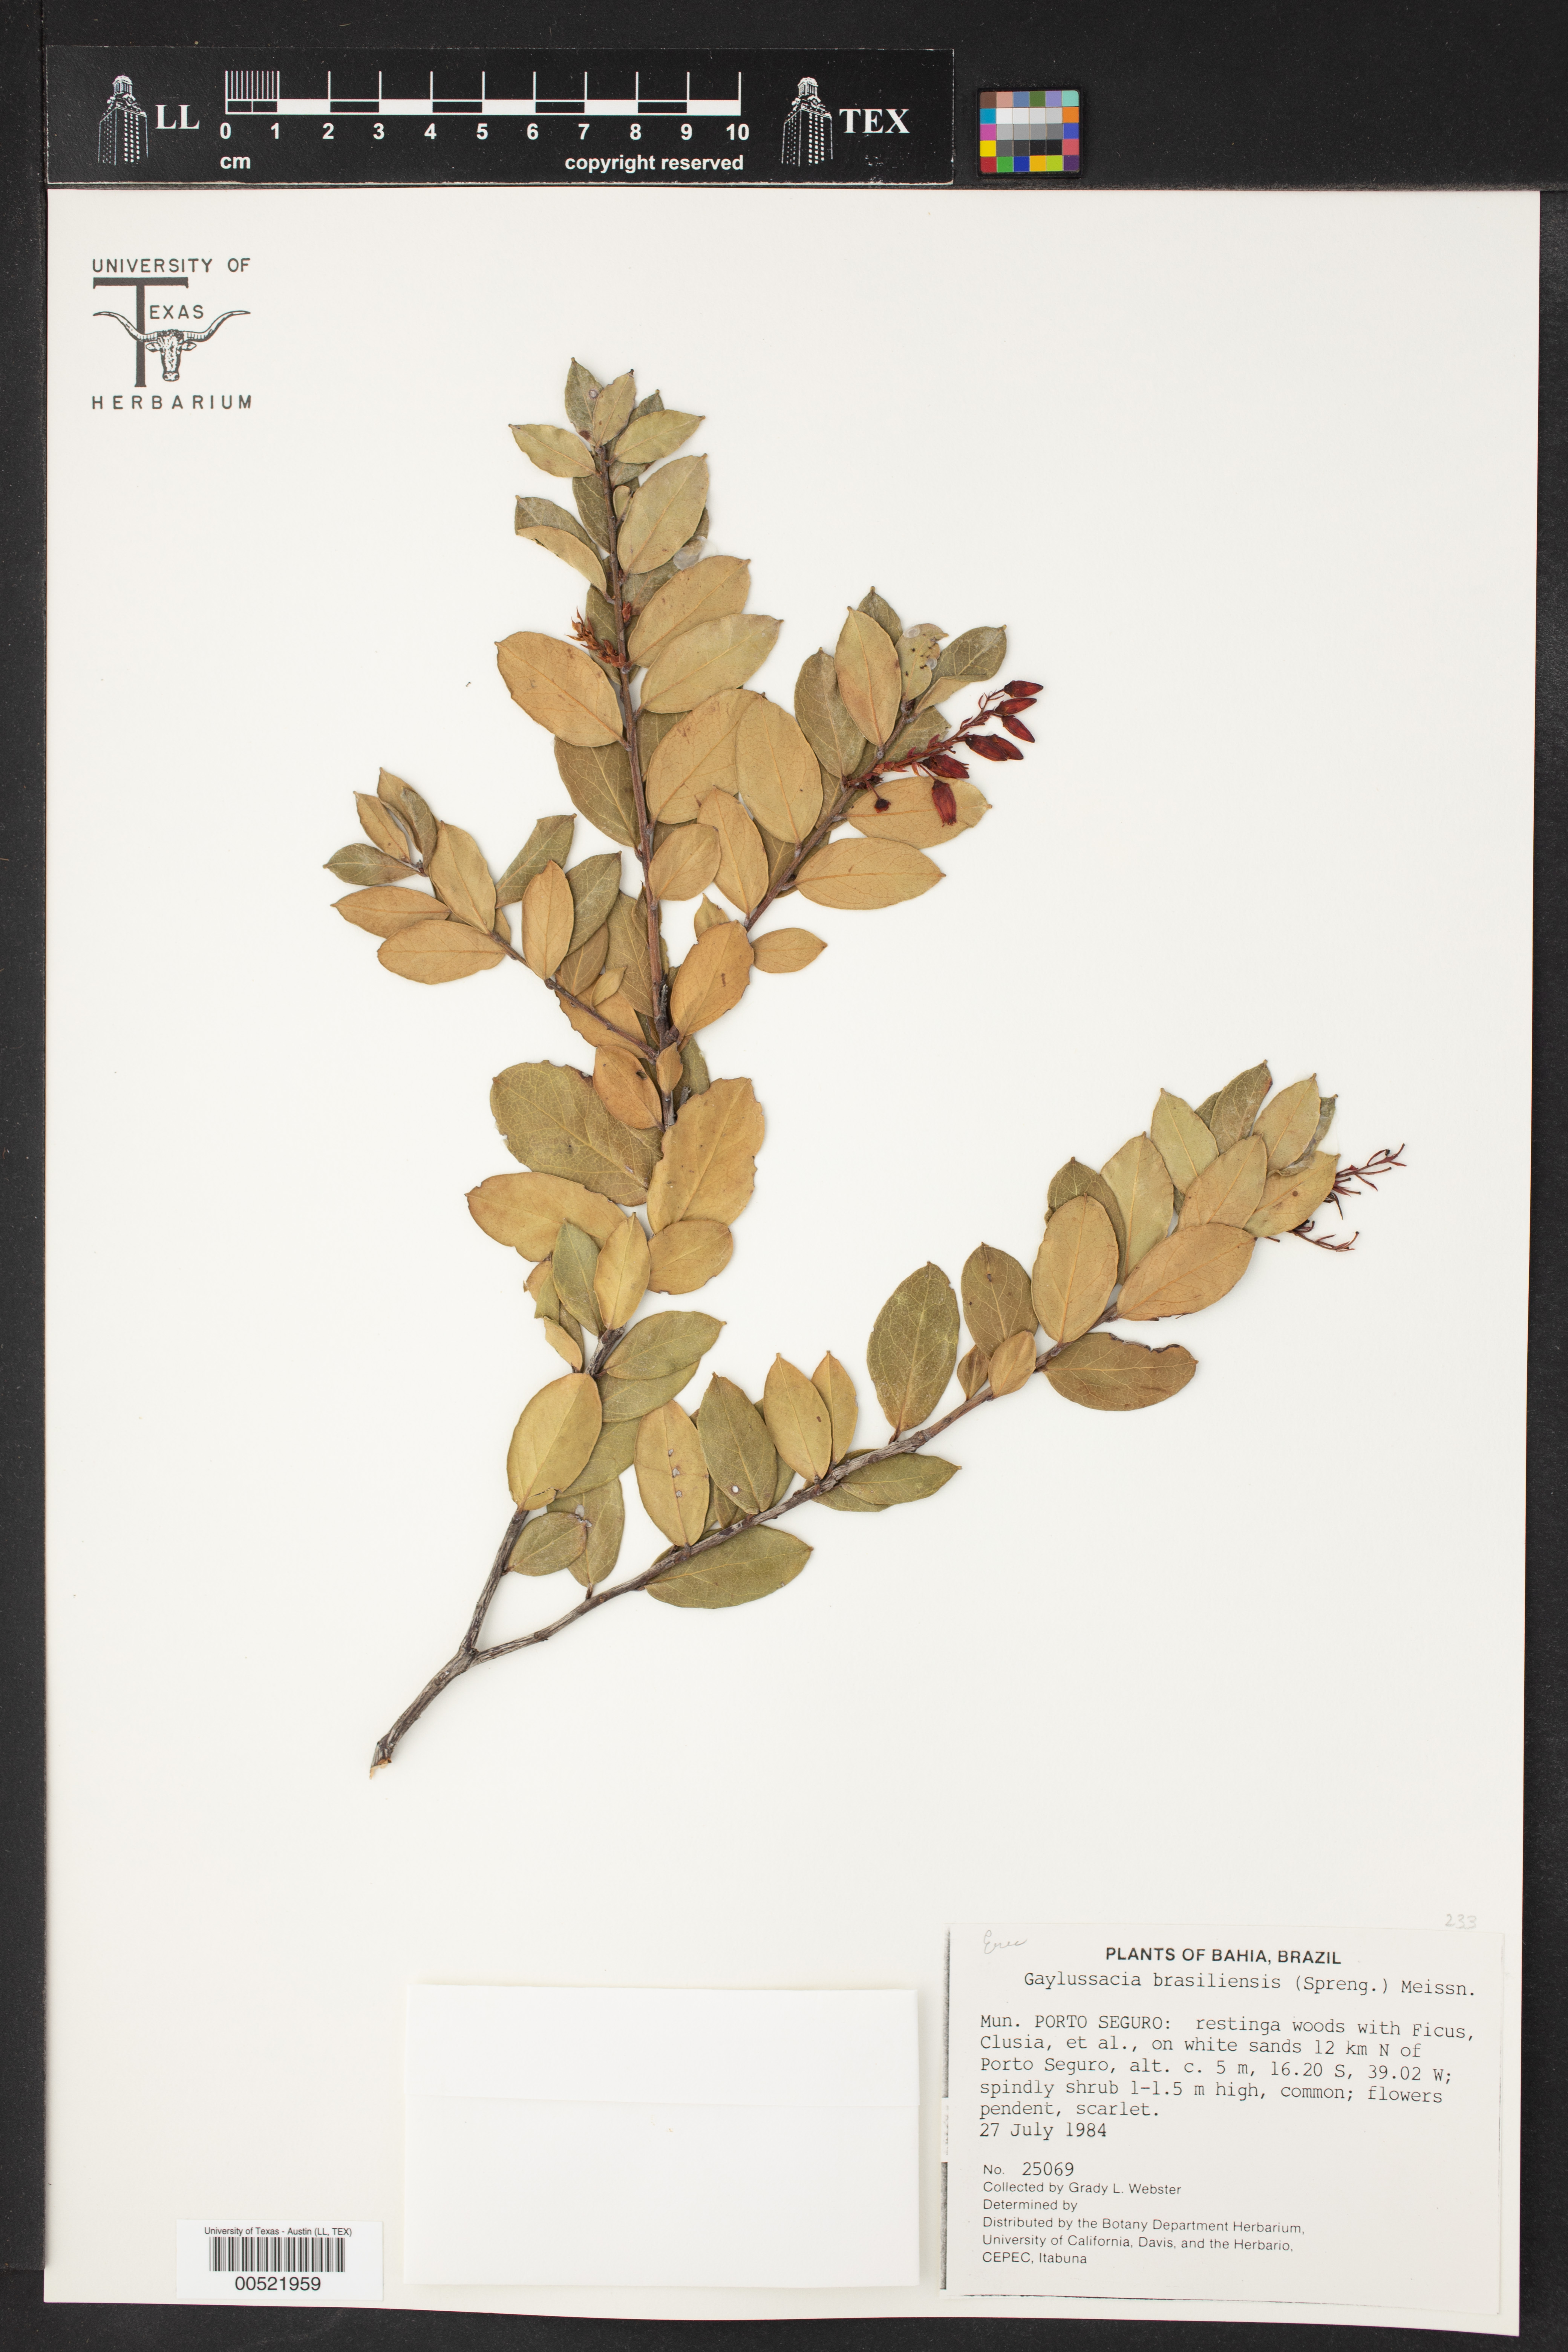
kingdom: Plantae
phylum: Tracheophyta
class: Magnoliopsida
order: Ericales
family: Ericaceae
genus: Gaylussacia
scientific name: Gaylussacia brasiliensis
